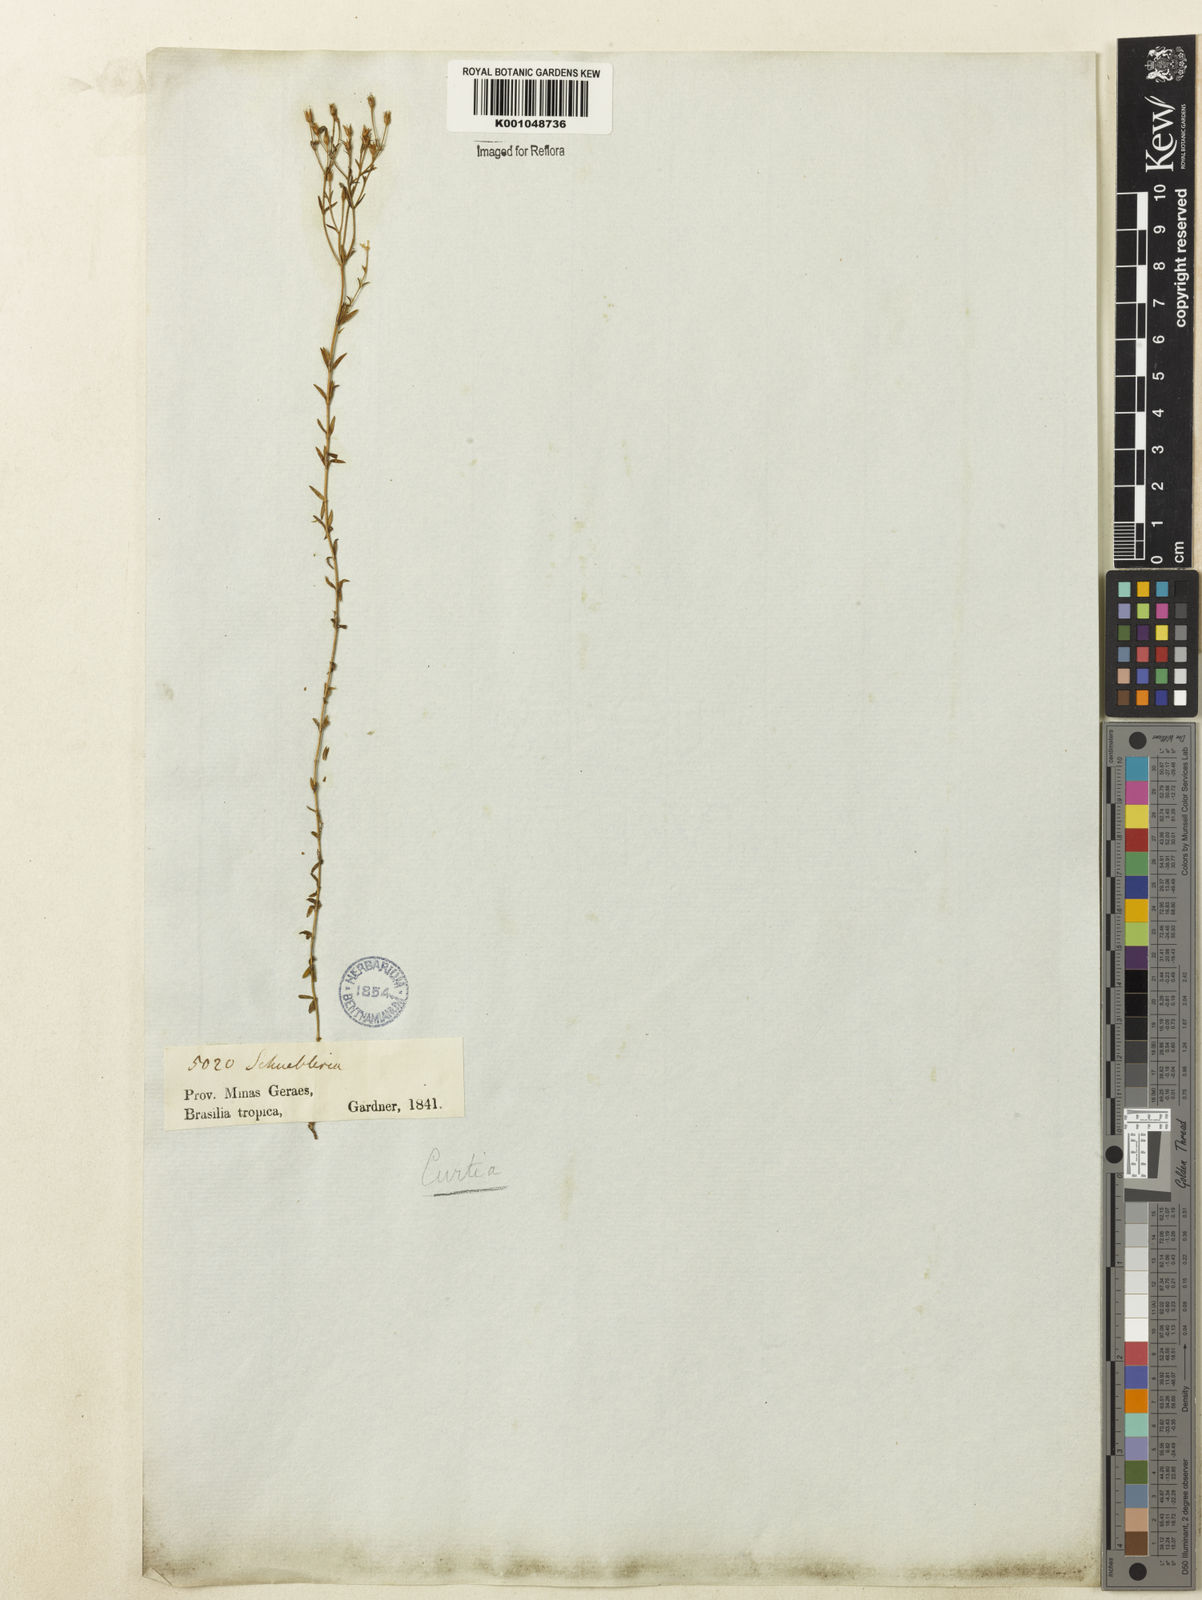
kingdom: Plantae
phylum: Tracheophyta
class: Magnoliopsida
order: Gentianales
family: Gentianaceae
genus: Curtia
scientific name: Curtia
